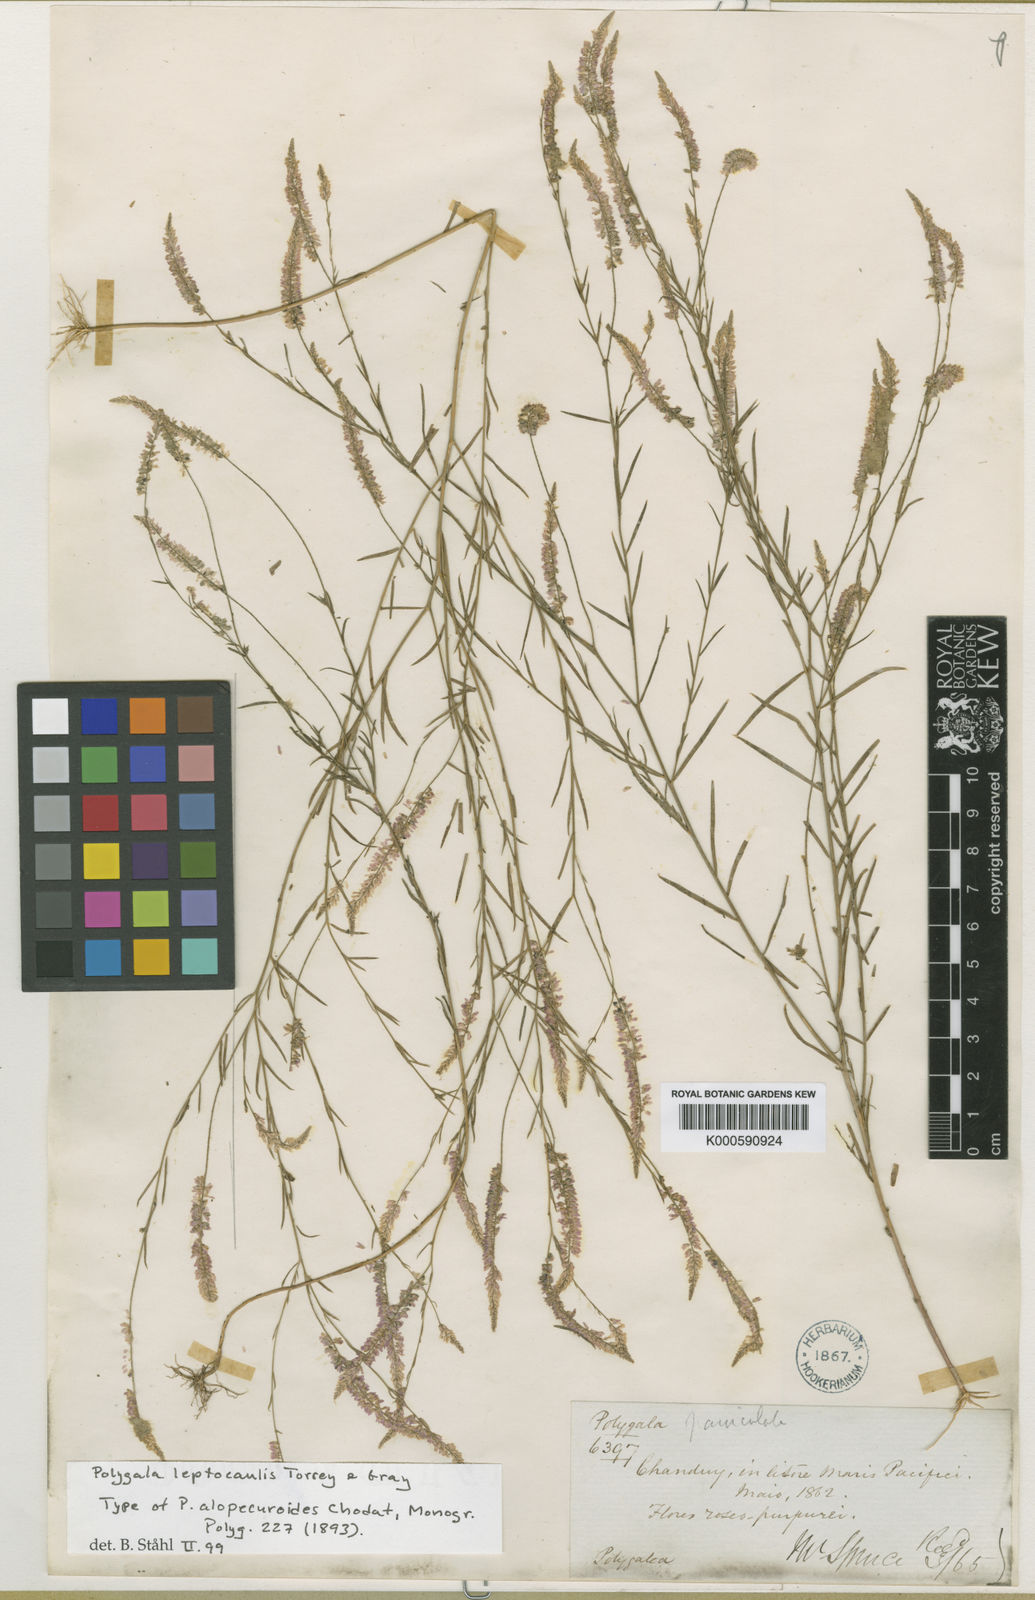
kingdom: Plantae
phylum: Tracheophyta
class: Magnoliopsida
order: Fabales
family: Polygalaceae
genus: Polygala
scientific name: Polygala tenella
